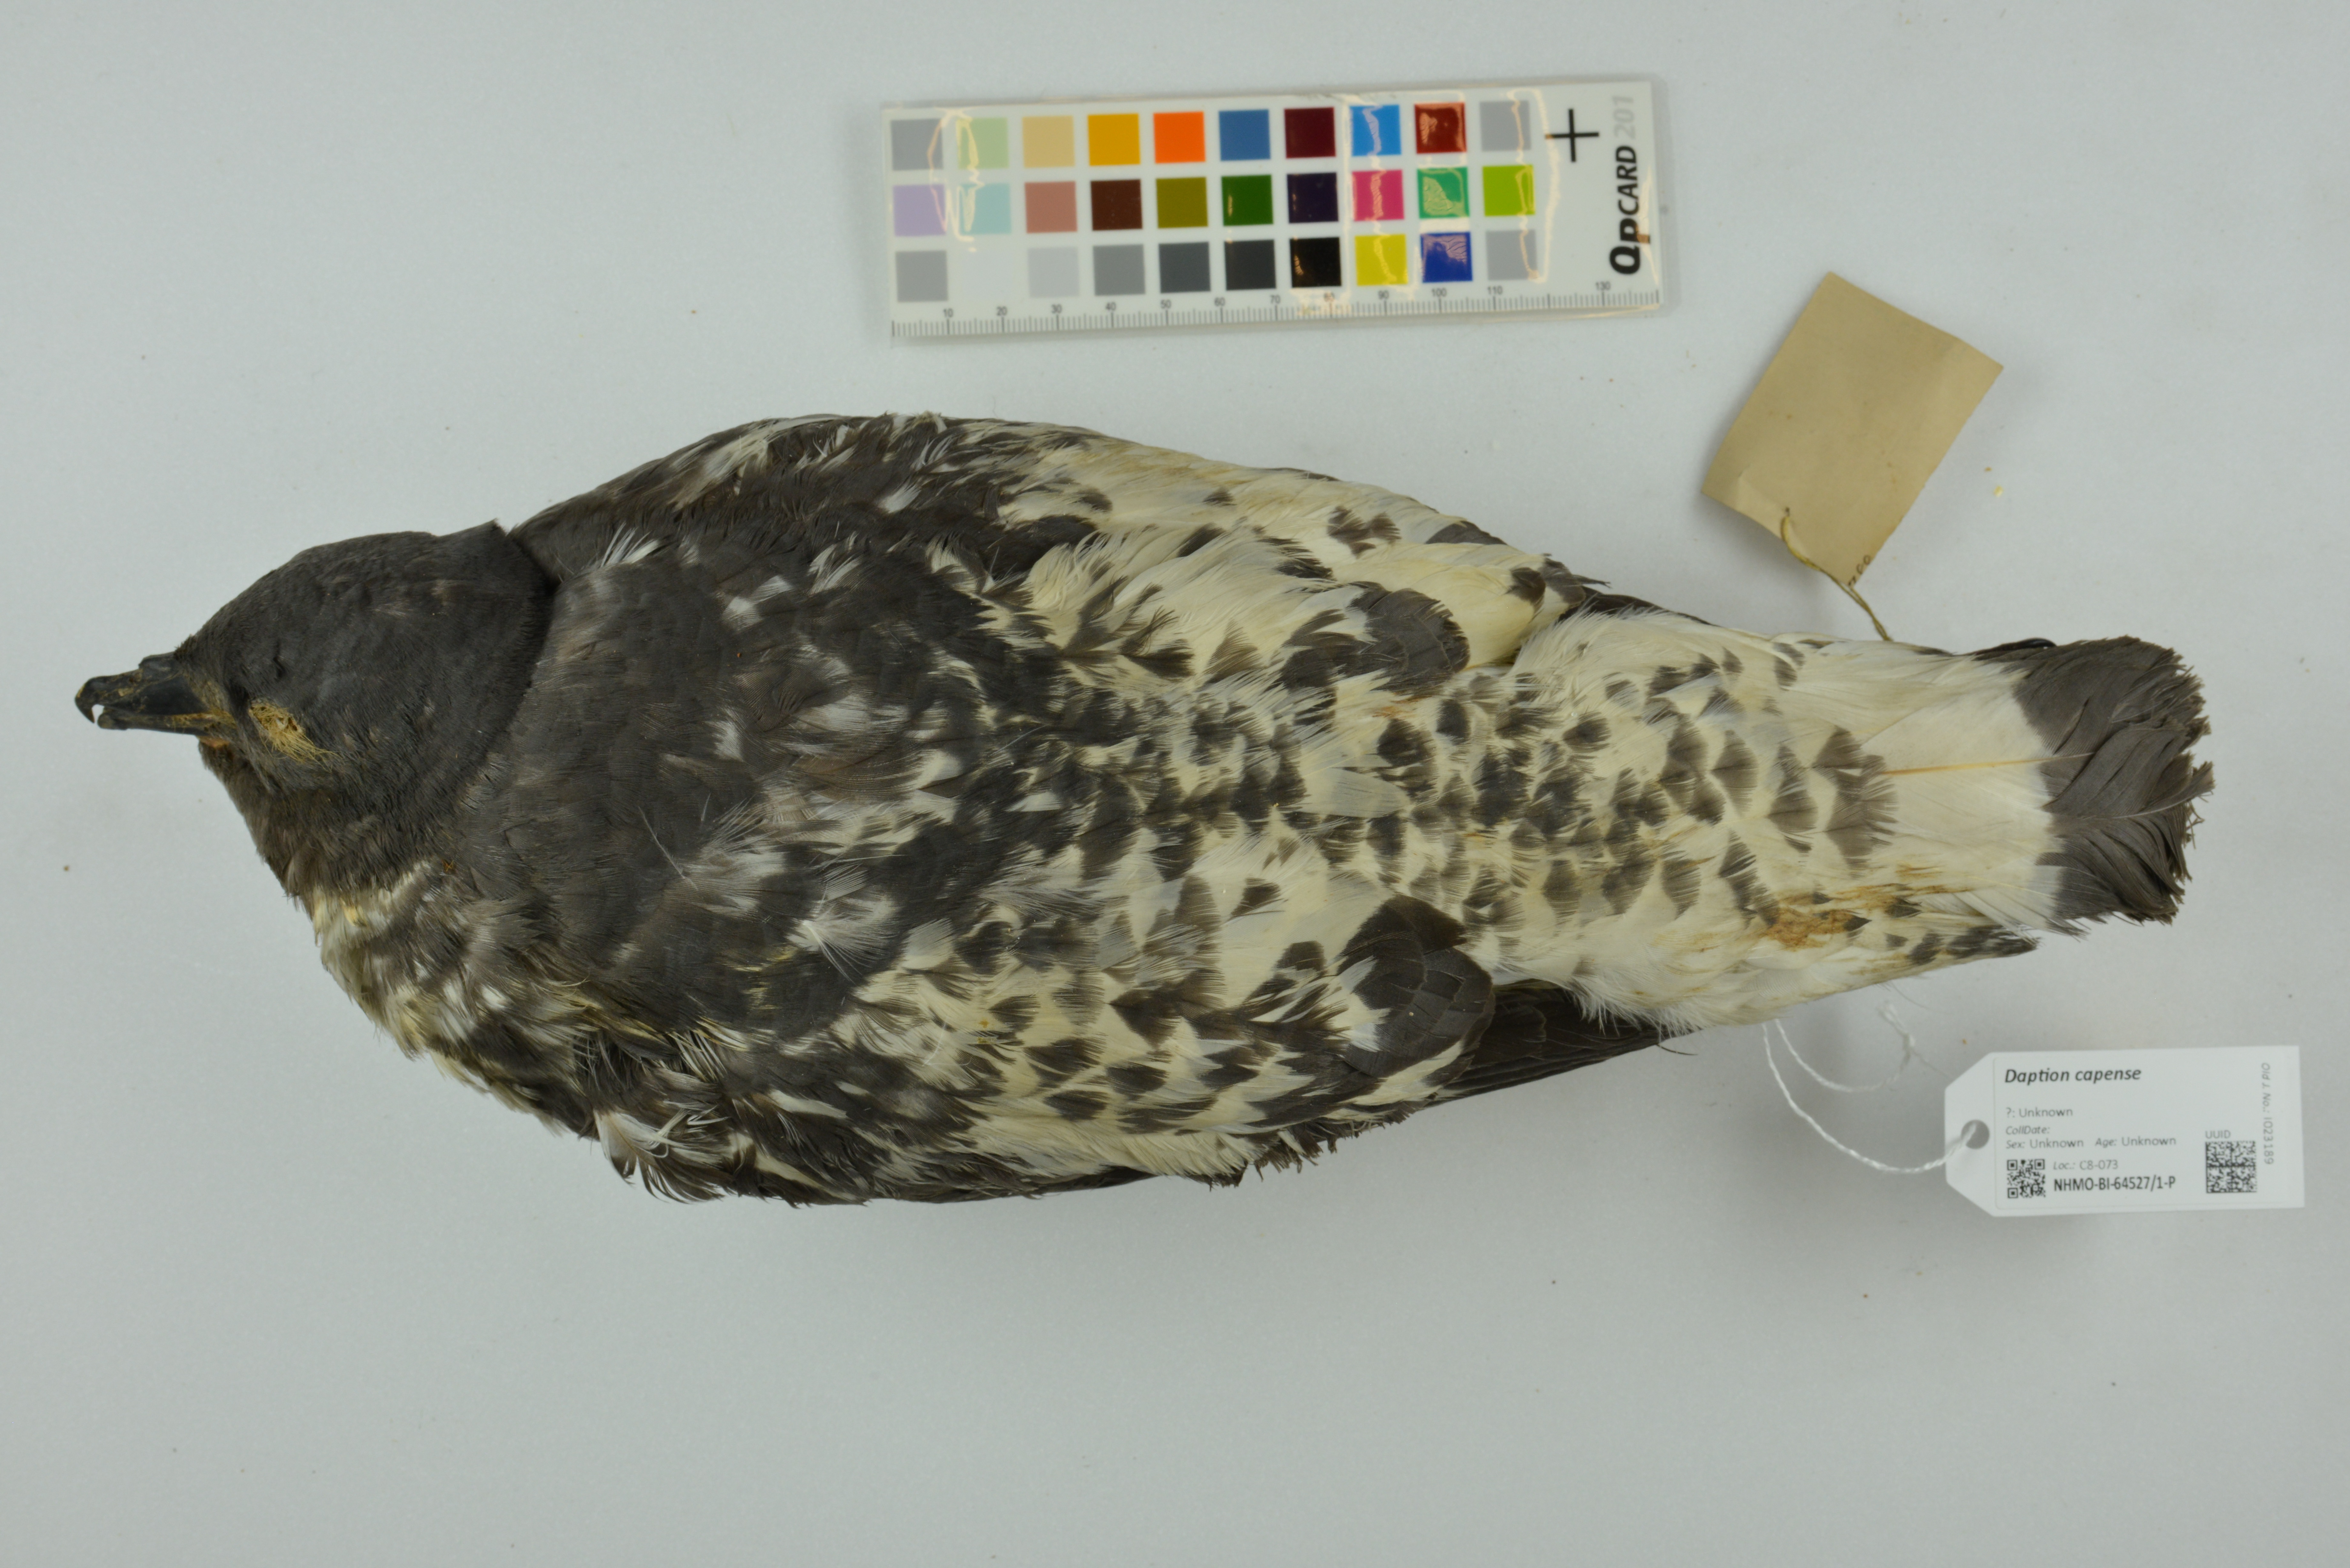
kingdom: Animalia
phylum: Chordata
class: Aves
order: Procellariiformes
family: Procellariidae
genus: Daption
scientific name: Daption capense
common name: Cape petrel
